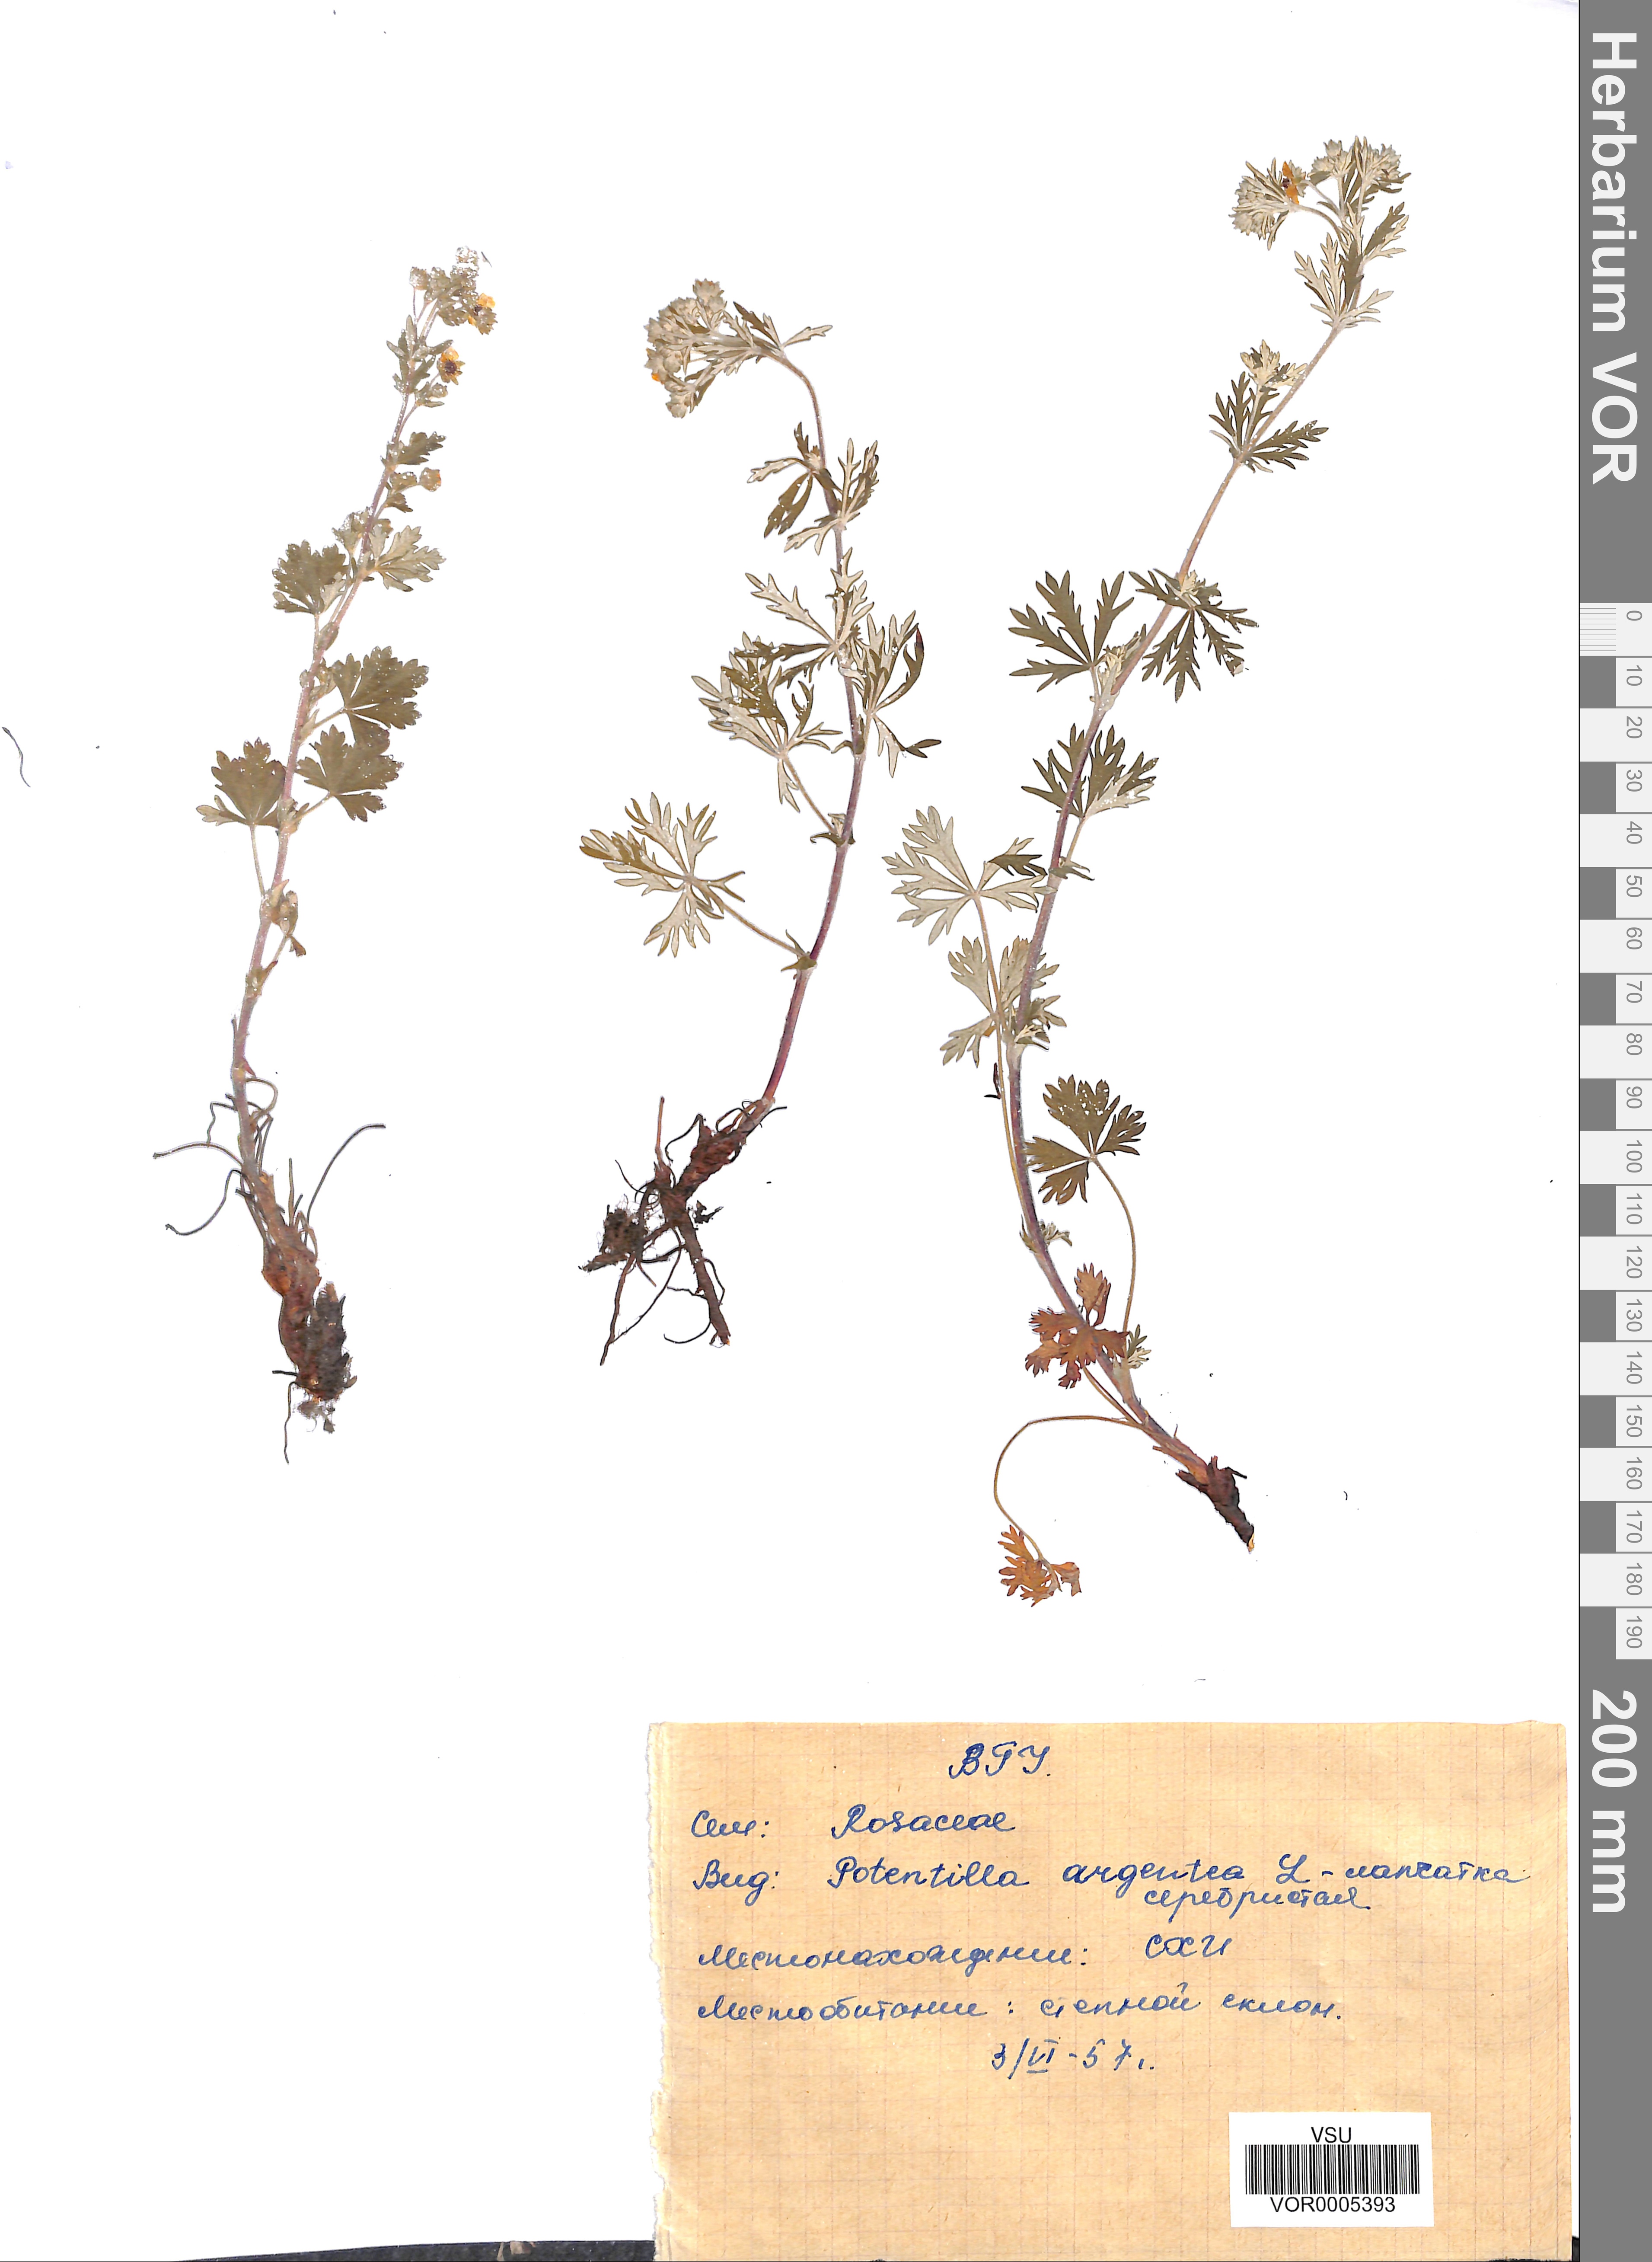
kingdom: Plantae
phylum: Tracheophyta
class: Magnoliopsida
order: Rosales
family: Rosaceae
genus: Potentilla
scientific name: Potentilla argentea
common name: Hoary cinquefoil
